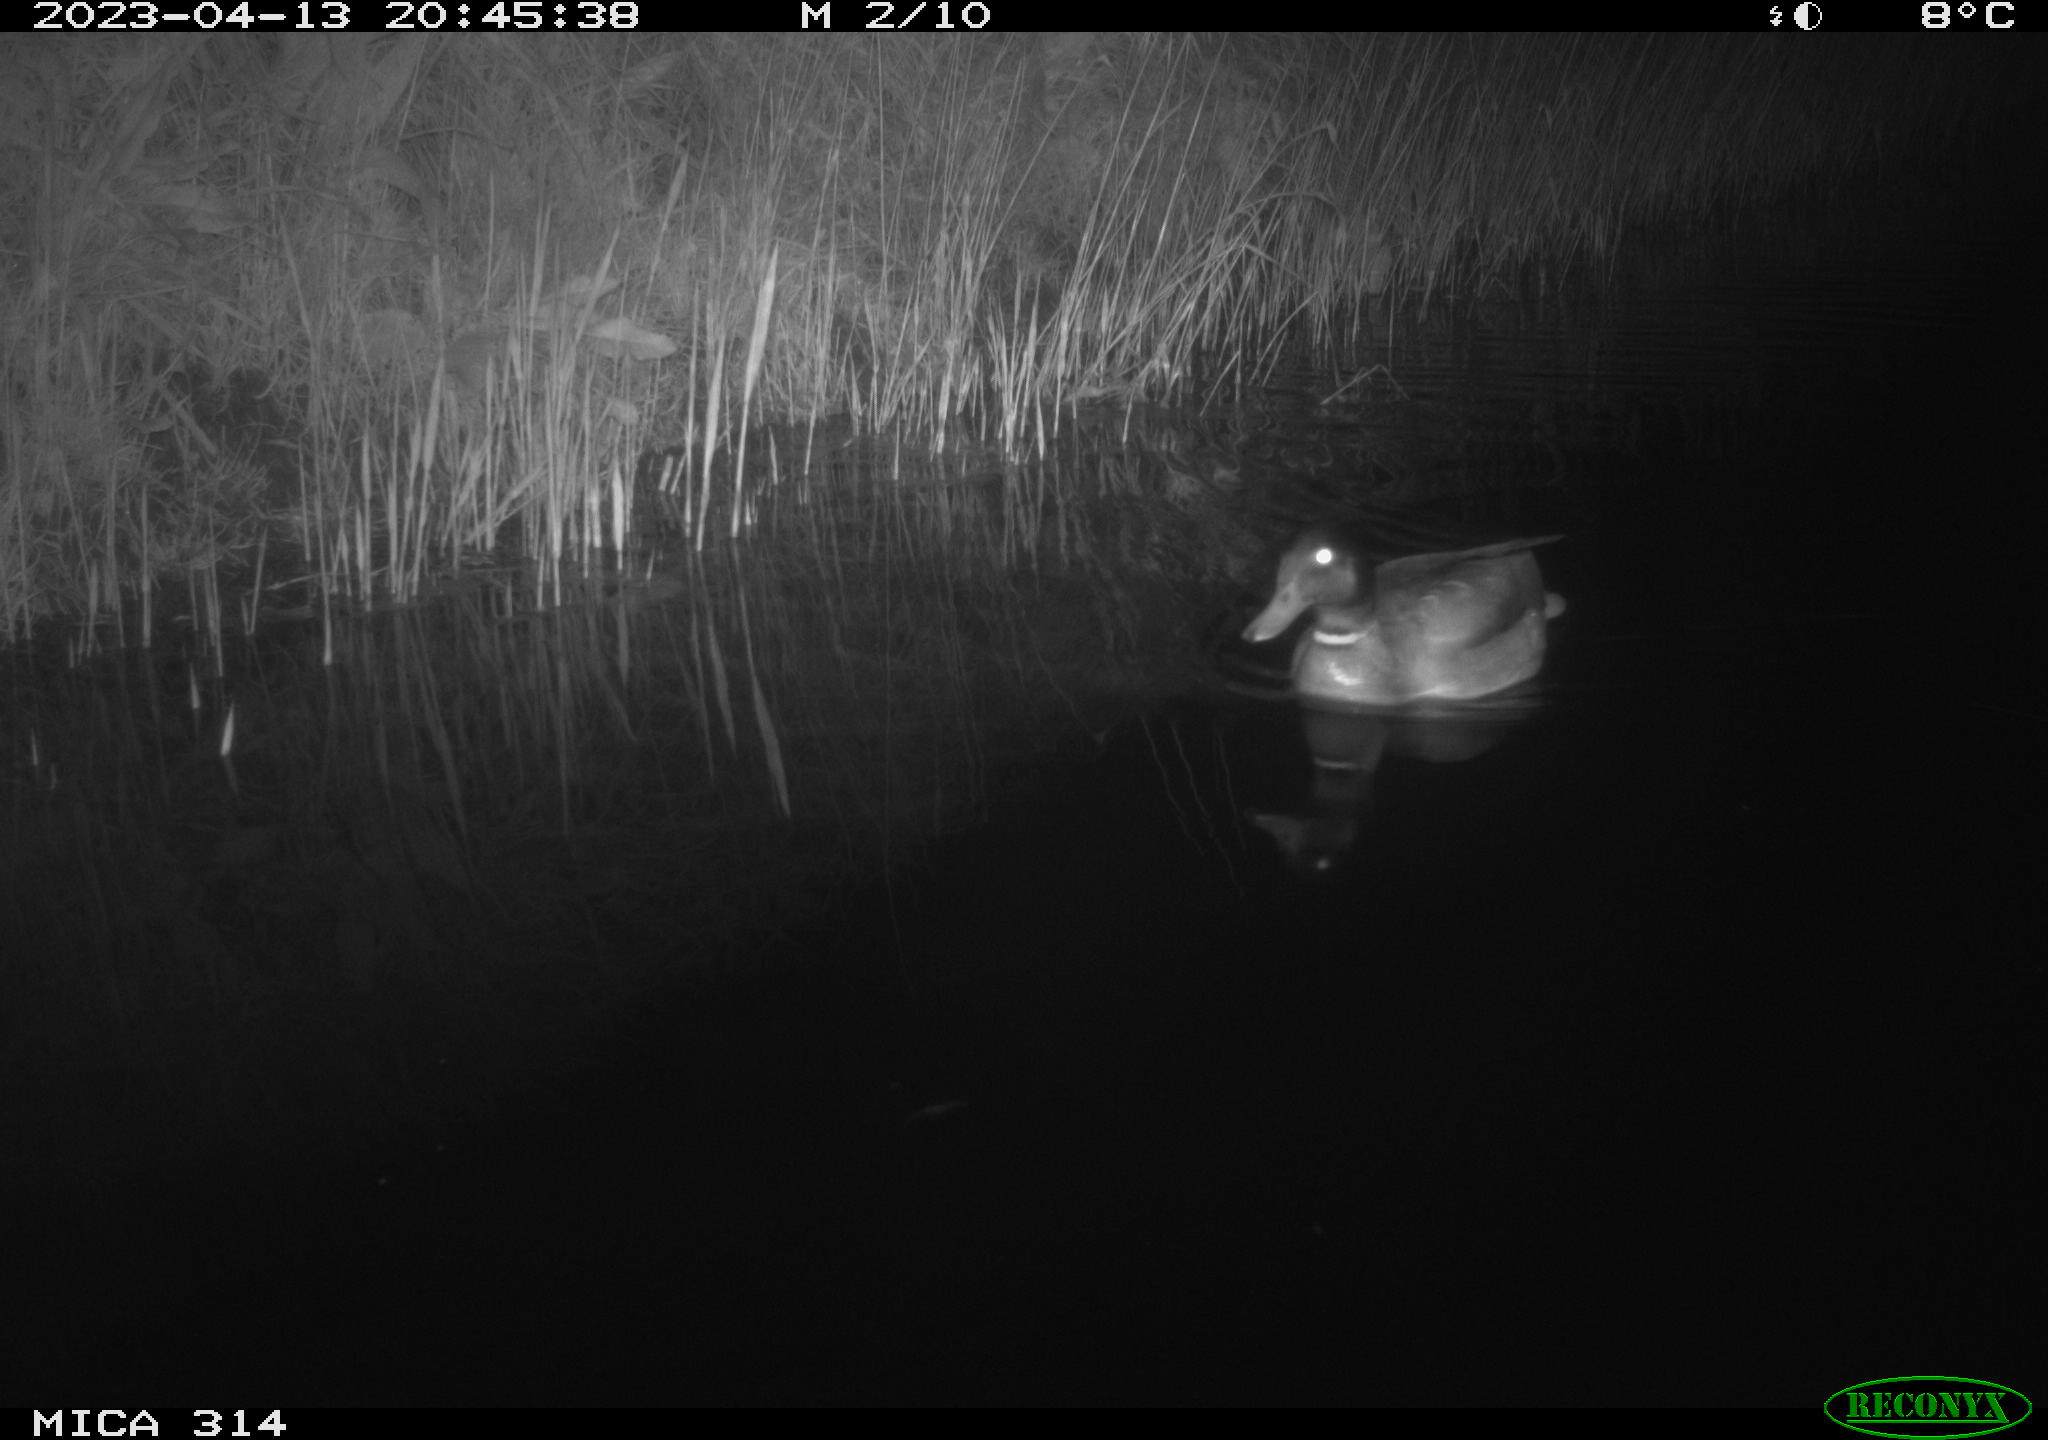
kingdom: Animalia
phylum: Chordata
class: Aves
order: Anseriformes
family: Anatidae
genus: Anas
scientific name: Anas
